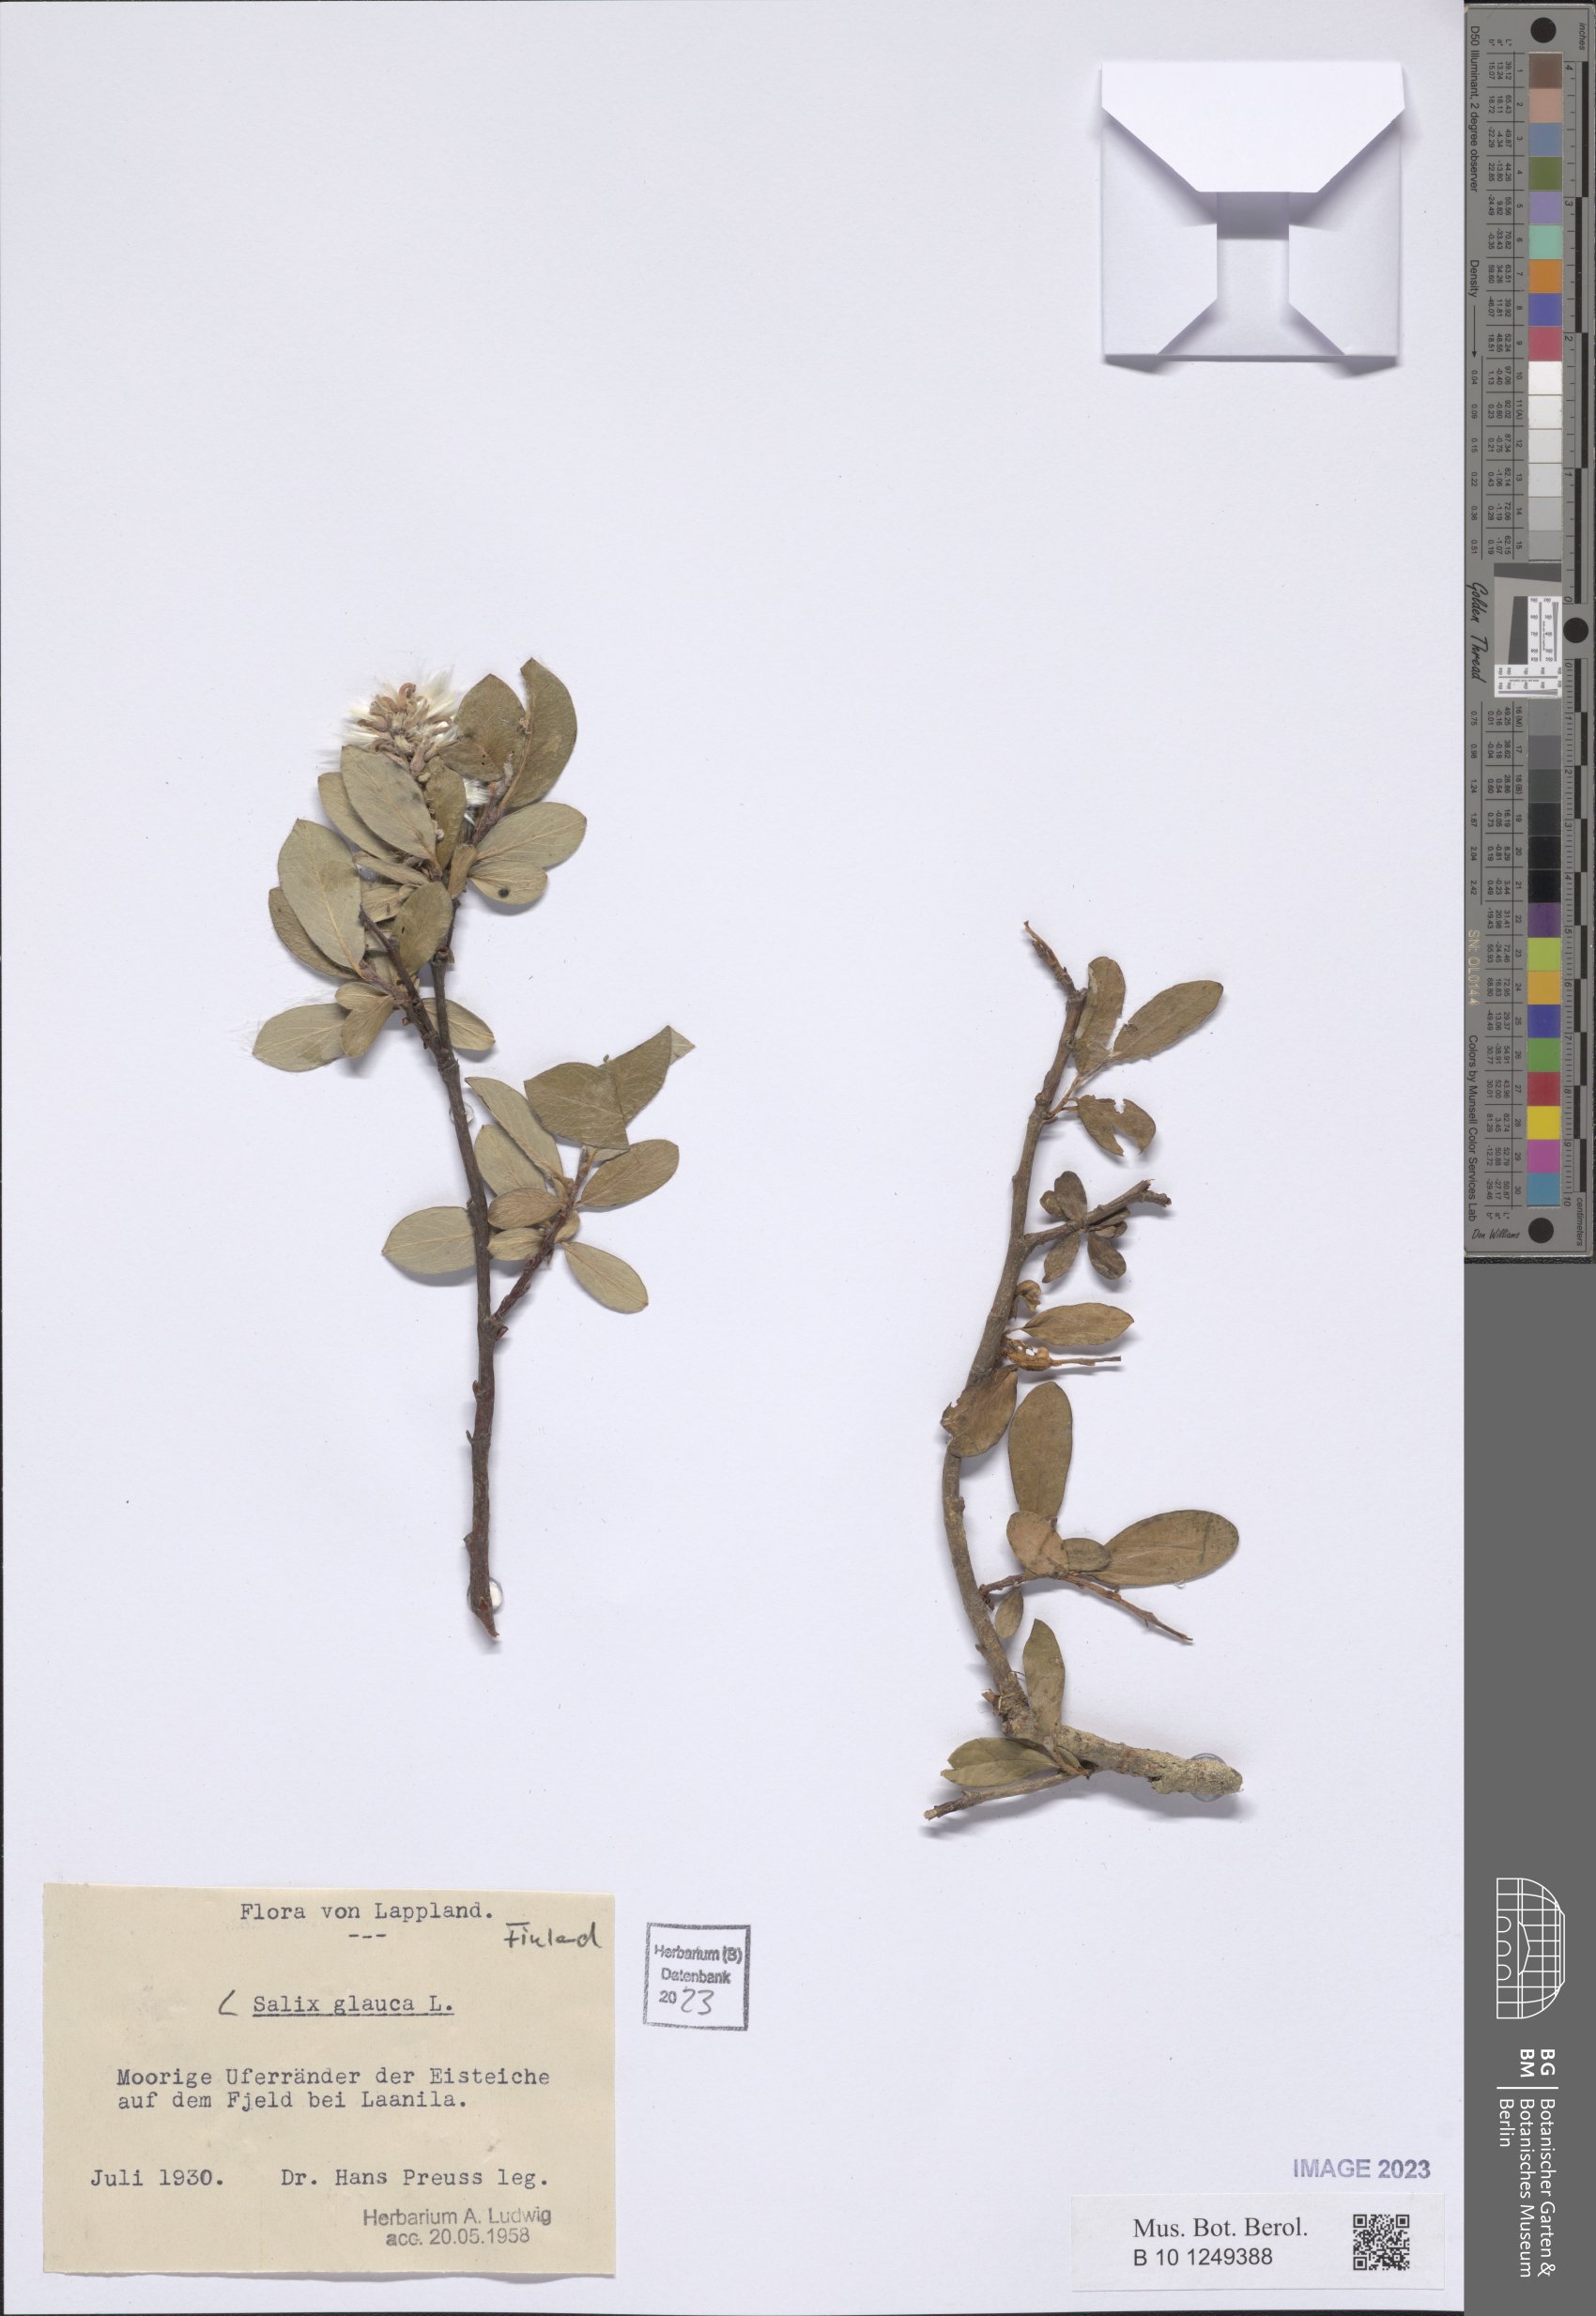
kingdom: Plantae
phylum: Tracheophyta
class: Magnoliopsida
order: Malpighiales
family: Salicaceae
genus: Salix
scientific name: Salix glauca
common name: Glaucous willow
